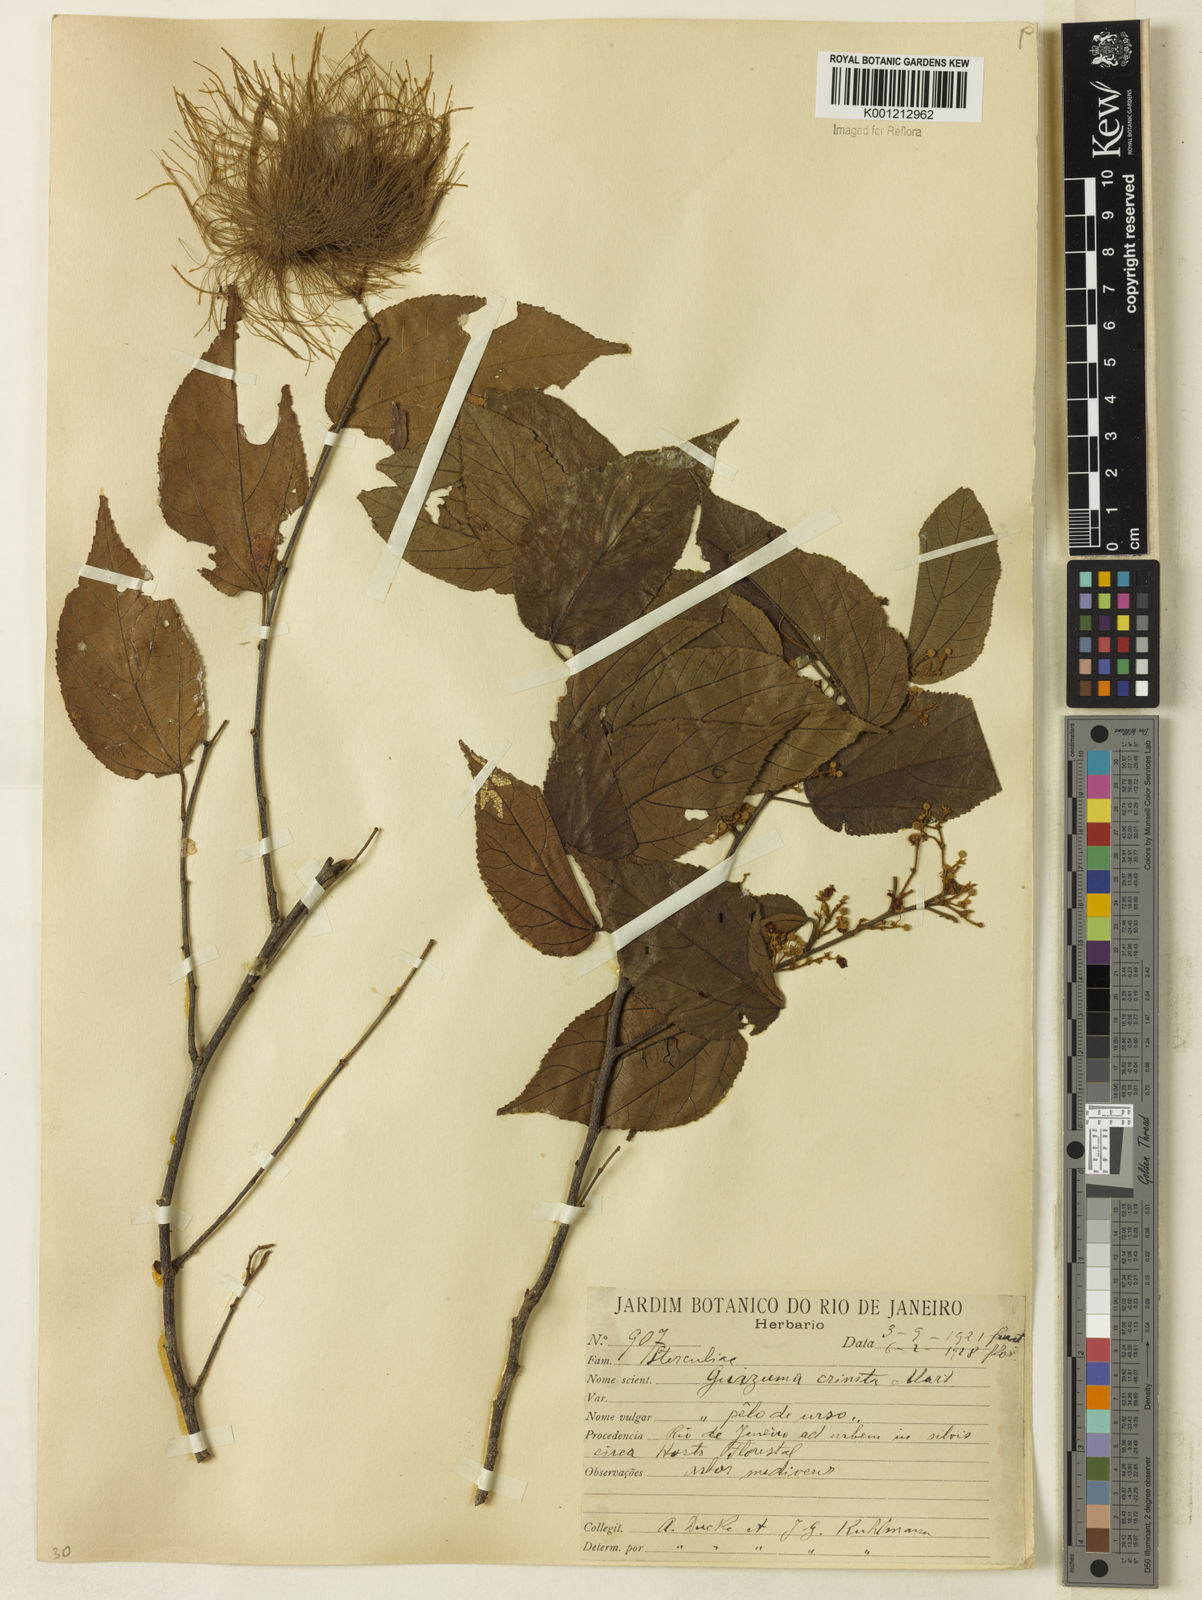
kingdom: Plantae
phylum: Tracheophyta
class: Magnoliopsida
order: Malvales
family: Malvaceae
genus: Guazuma
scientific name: Guazuma crinita
